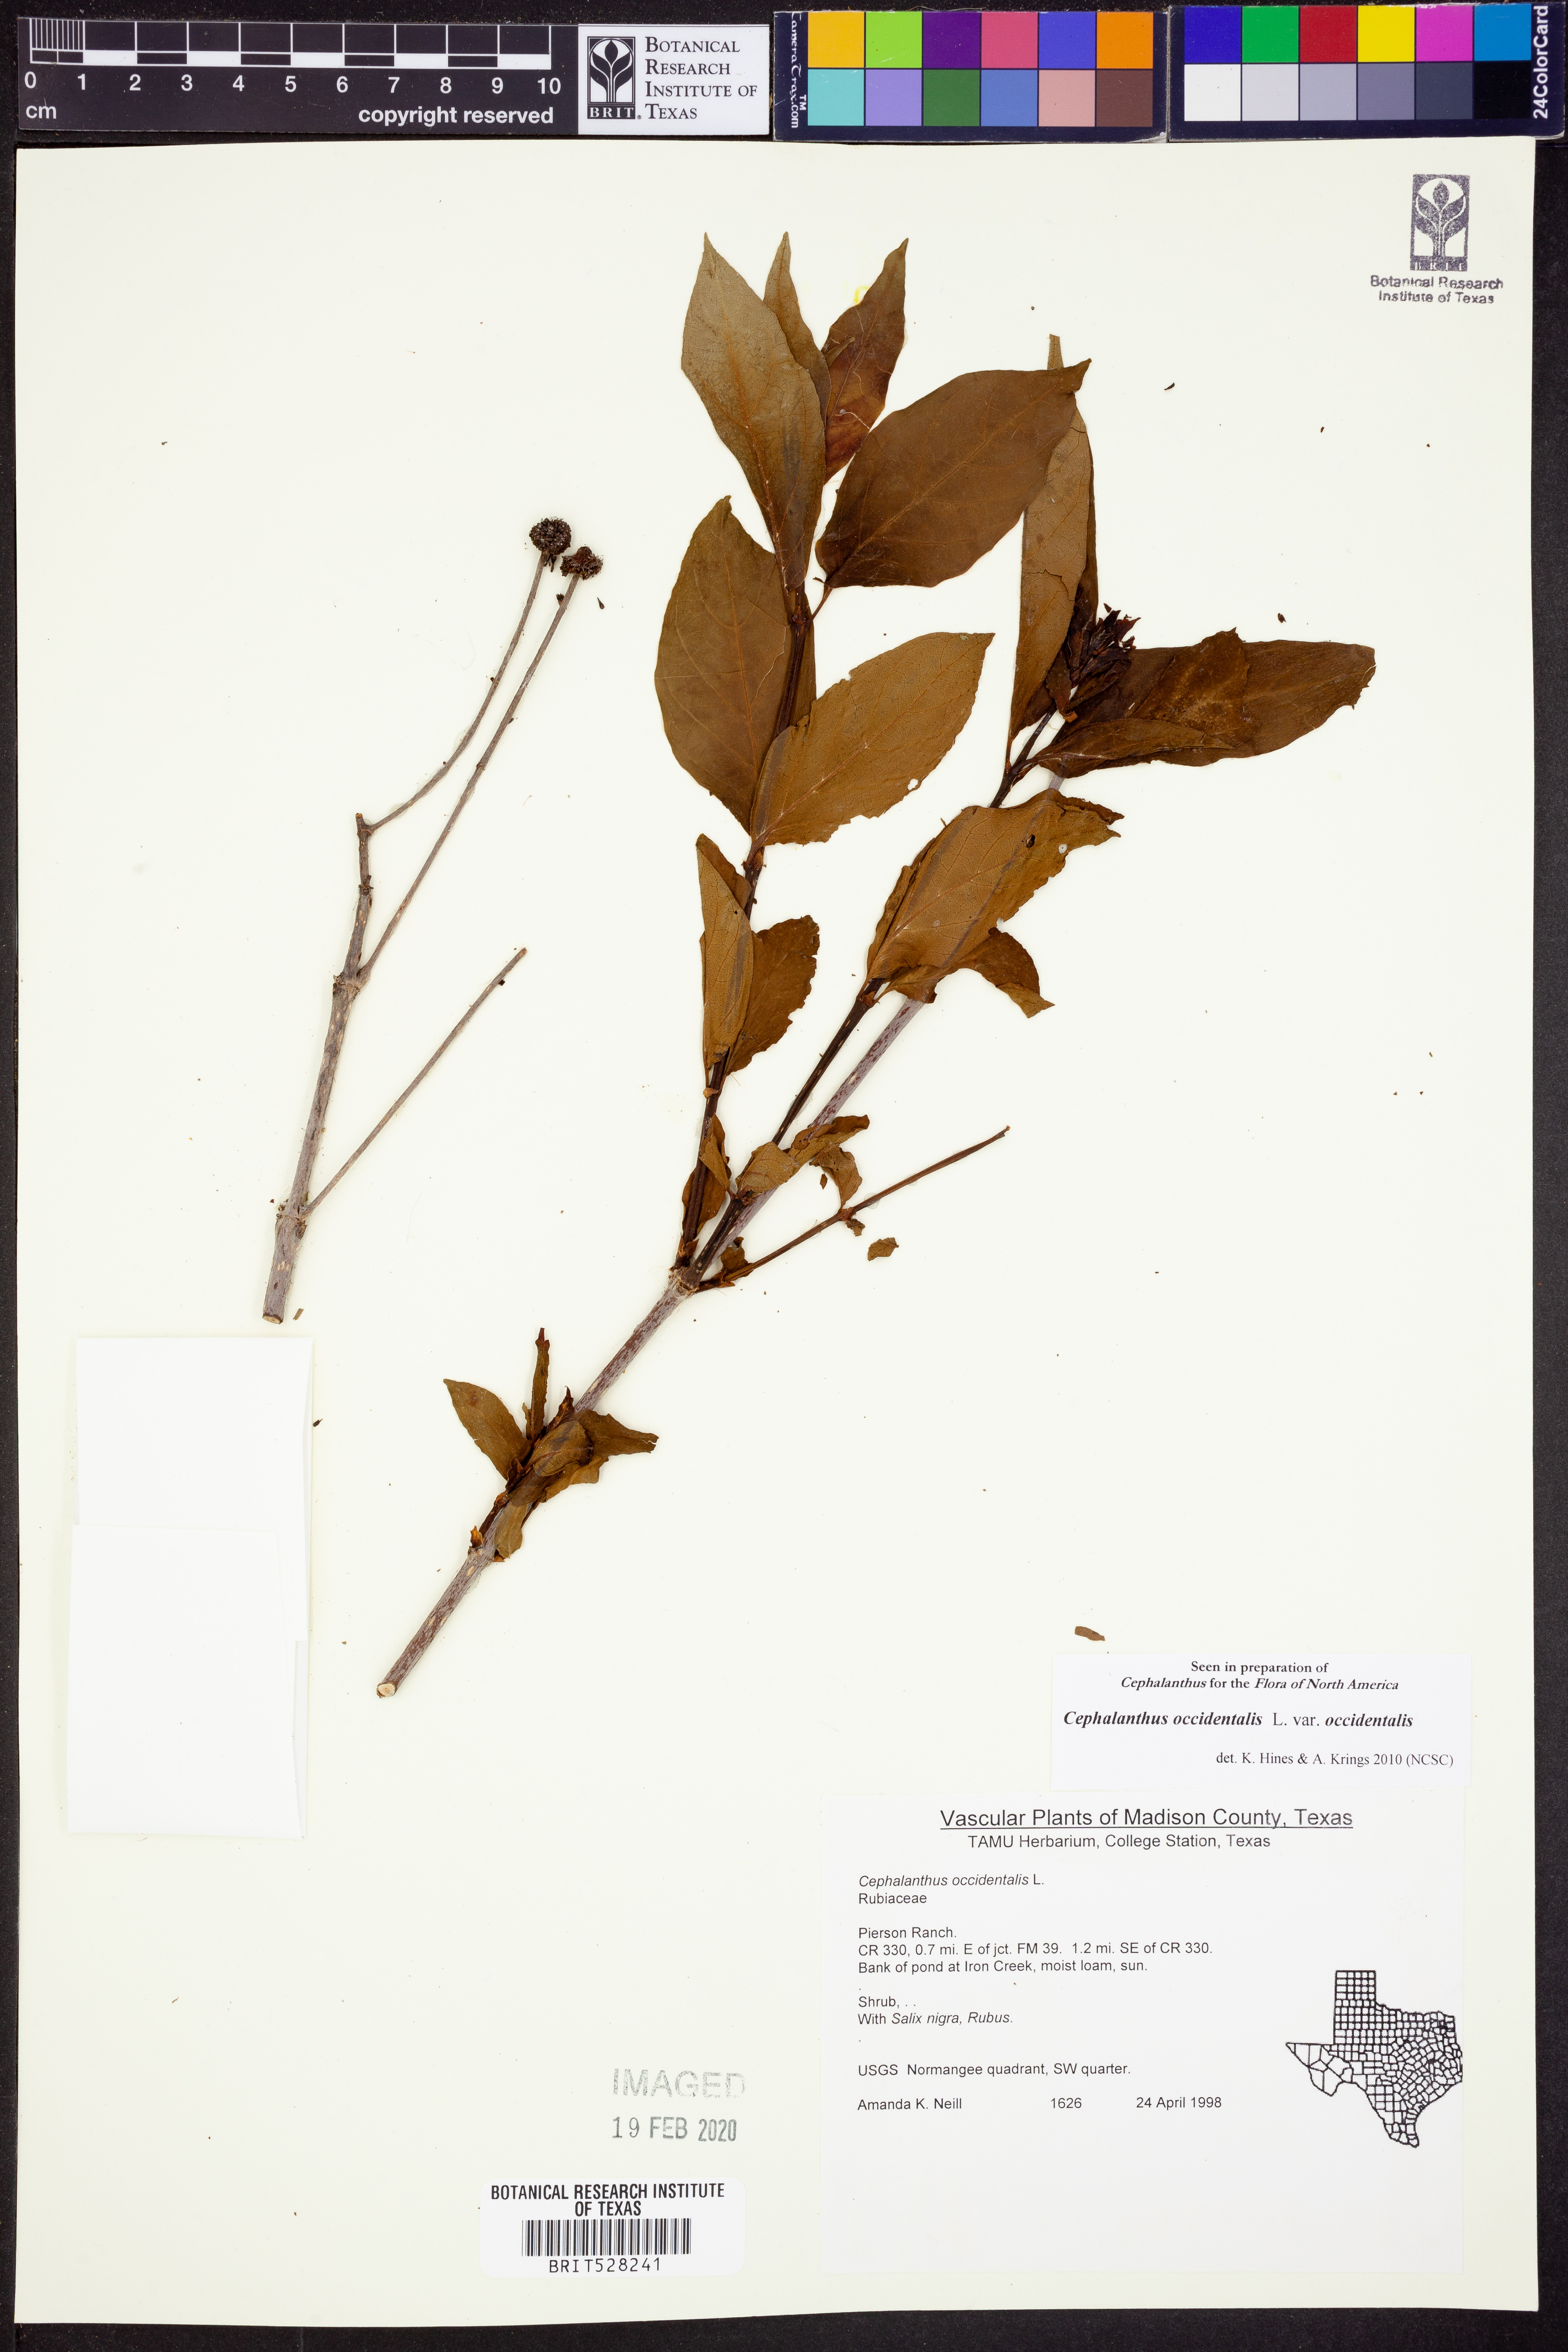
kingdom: Plantae
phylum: Tracheophyta
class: Magnoliopsida
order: Gentianales
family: Rubiaceae
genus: Cephalanthus
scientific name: Cephalanthus occidentalis
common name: Button-willow
